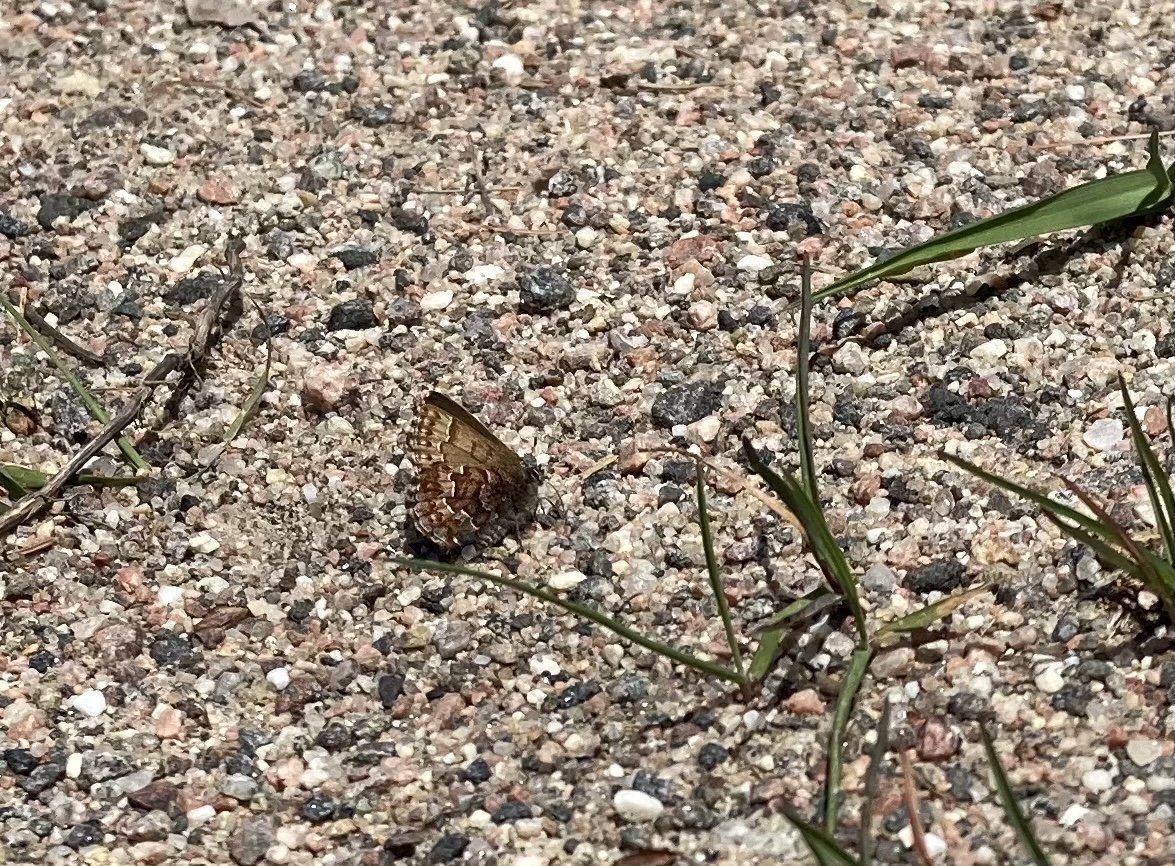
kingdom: Animalia
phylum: Arthropoda
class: Insecta
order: Lepidoptera
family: Lycaenidae
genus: Incisalia
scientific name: Incisalia niphon
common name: Eastern Pine Elfin
